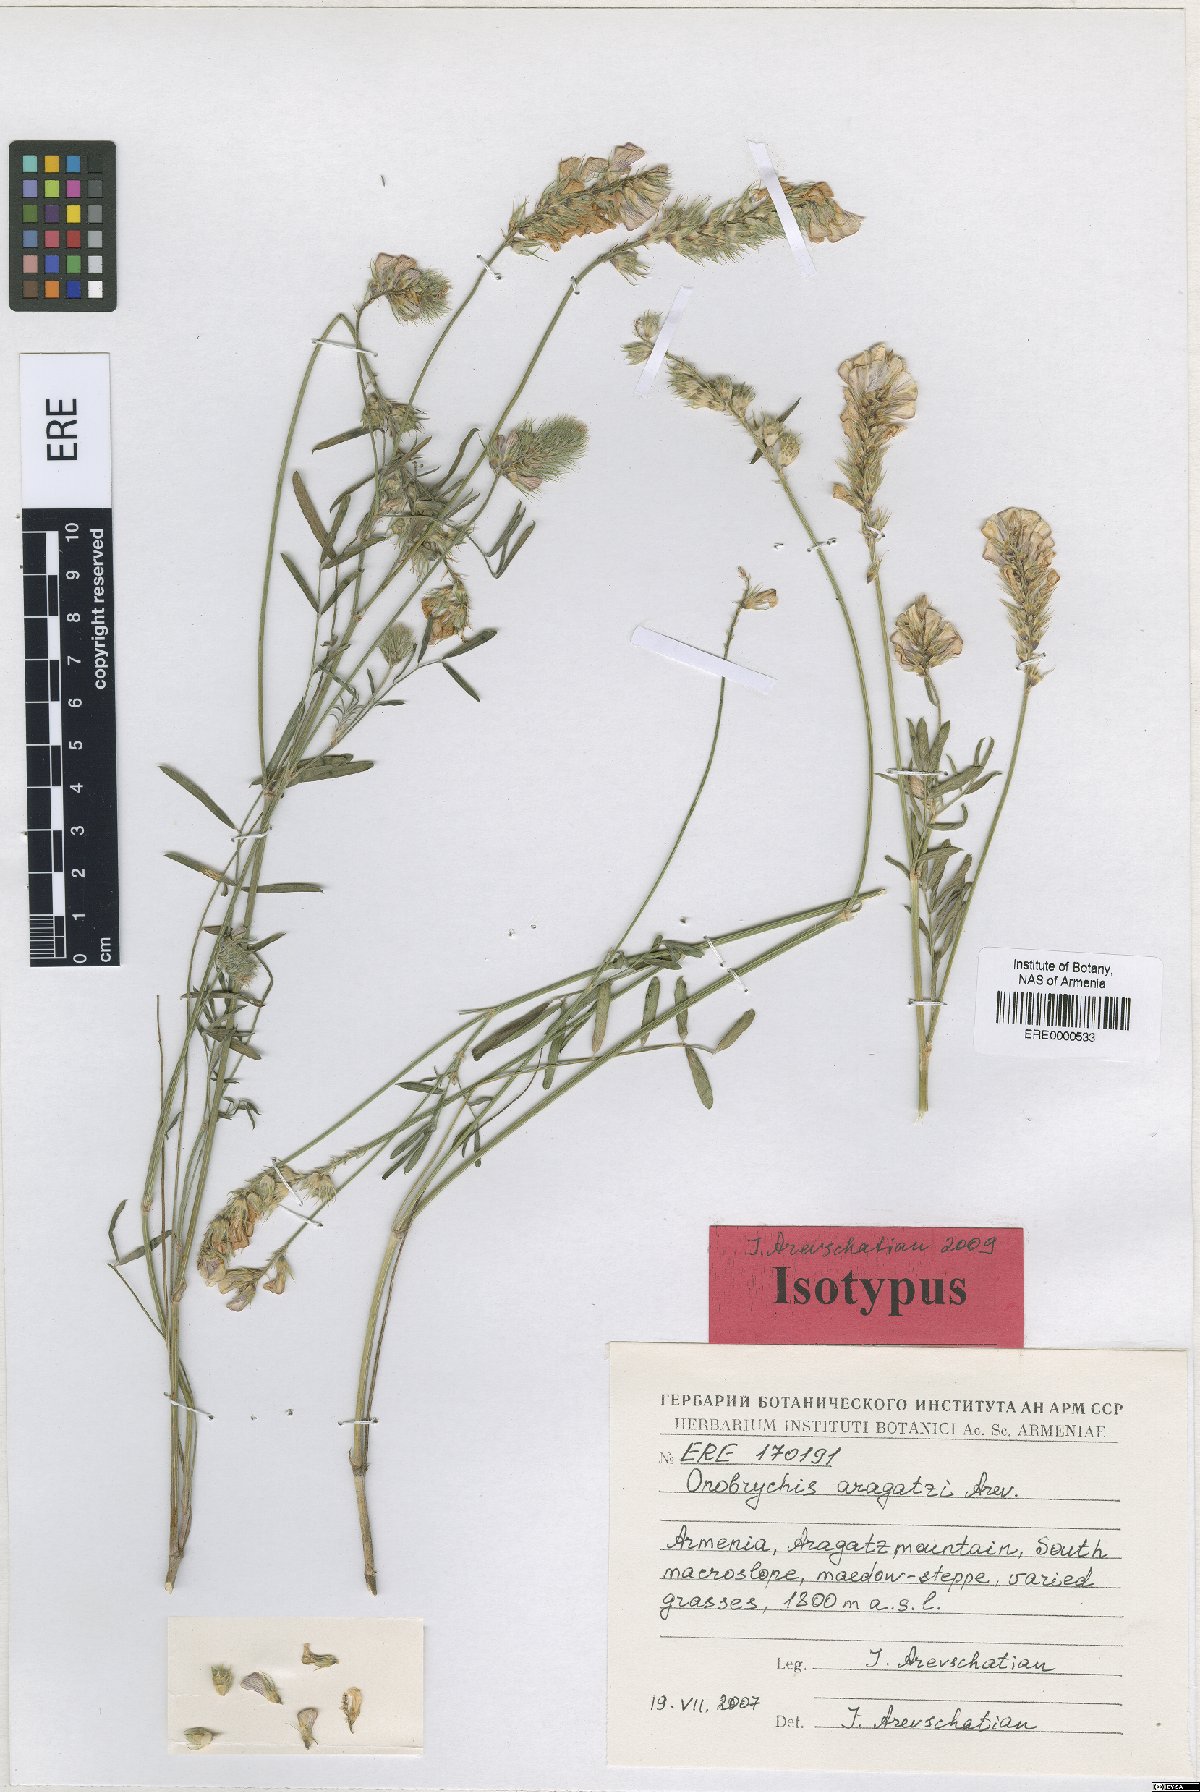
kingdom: Plantae
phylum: Tracheophyta
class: Magnoliopsida
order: Fabales
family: Fabaceae
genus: Onobrychis
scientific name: Onobrychis aragatzi
